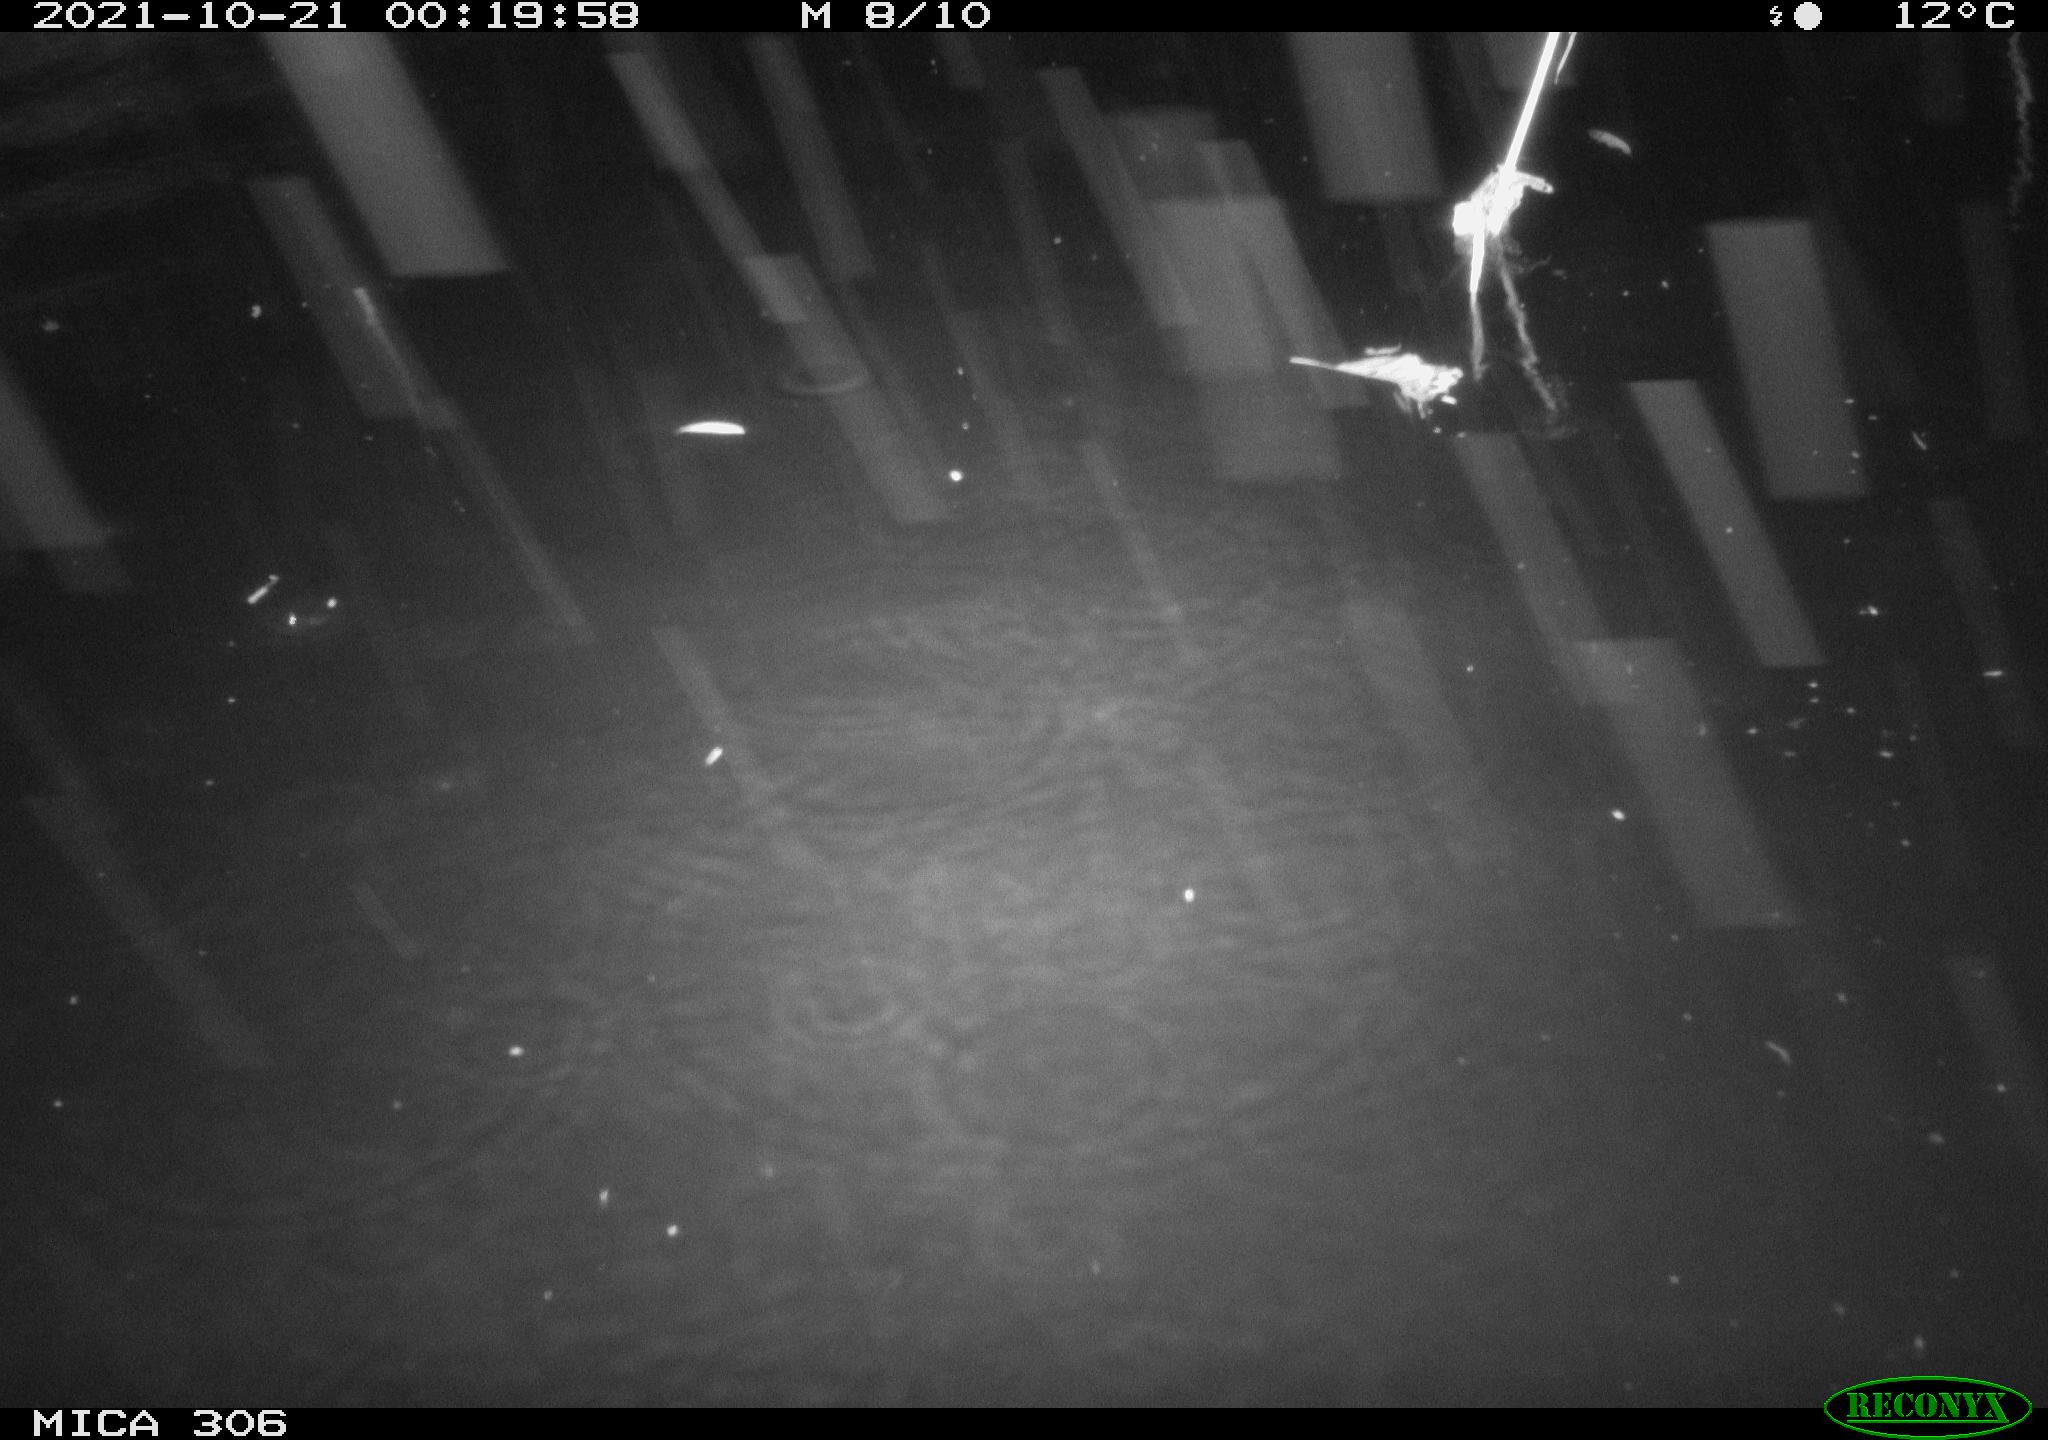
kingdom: Animalia
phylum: Chordata
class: Mammalia
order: Rodentia
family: Cricetidae
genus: Ondatra
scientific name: Ondatra zibethicus
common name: Muskrat
